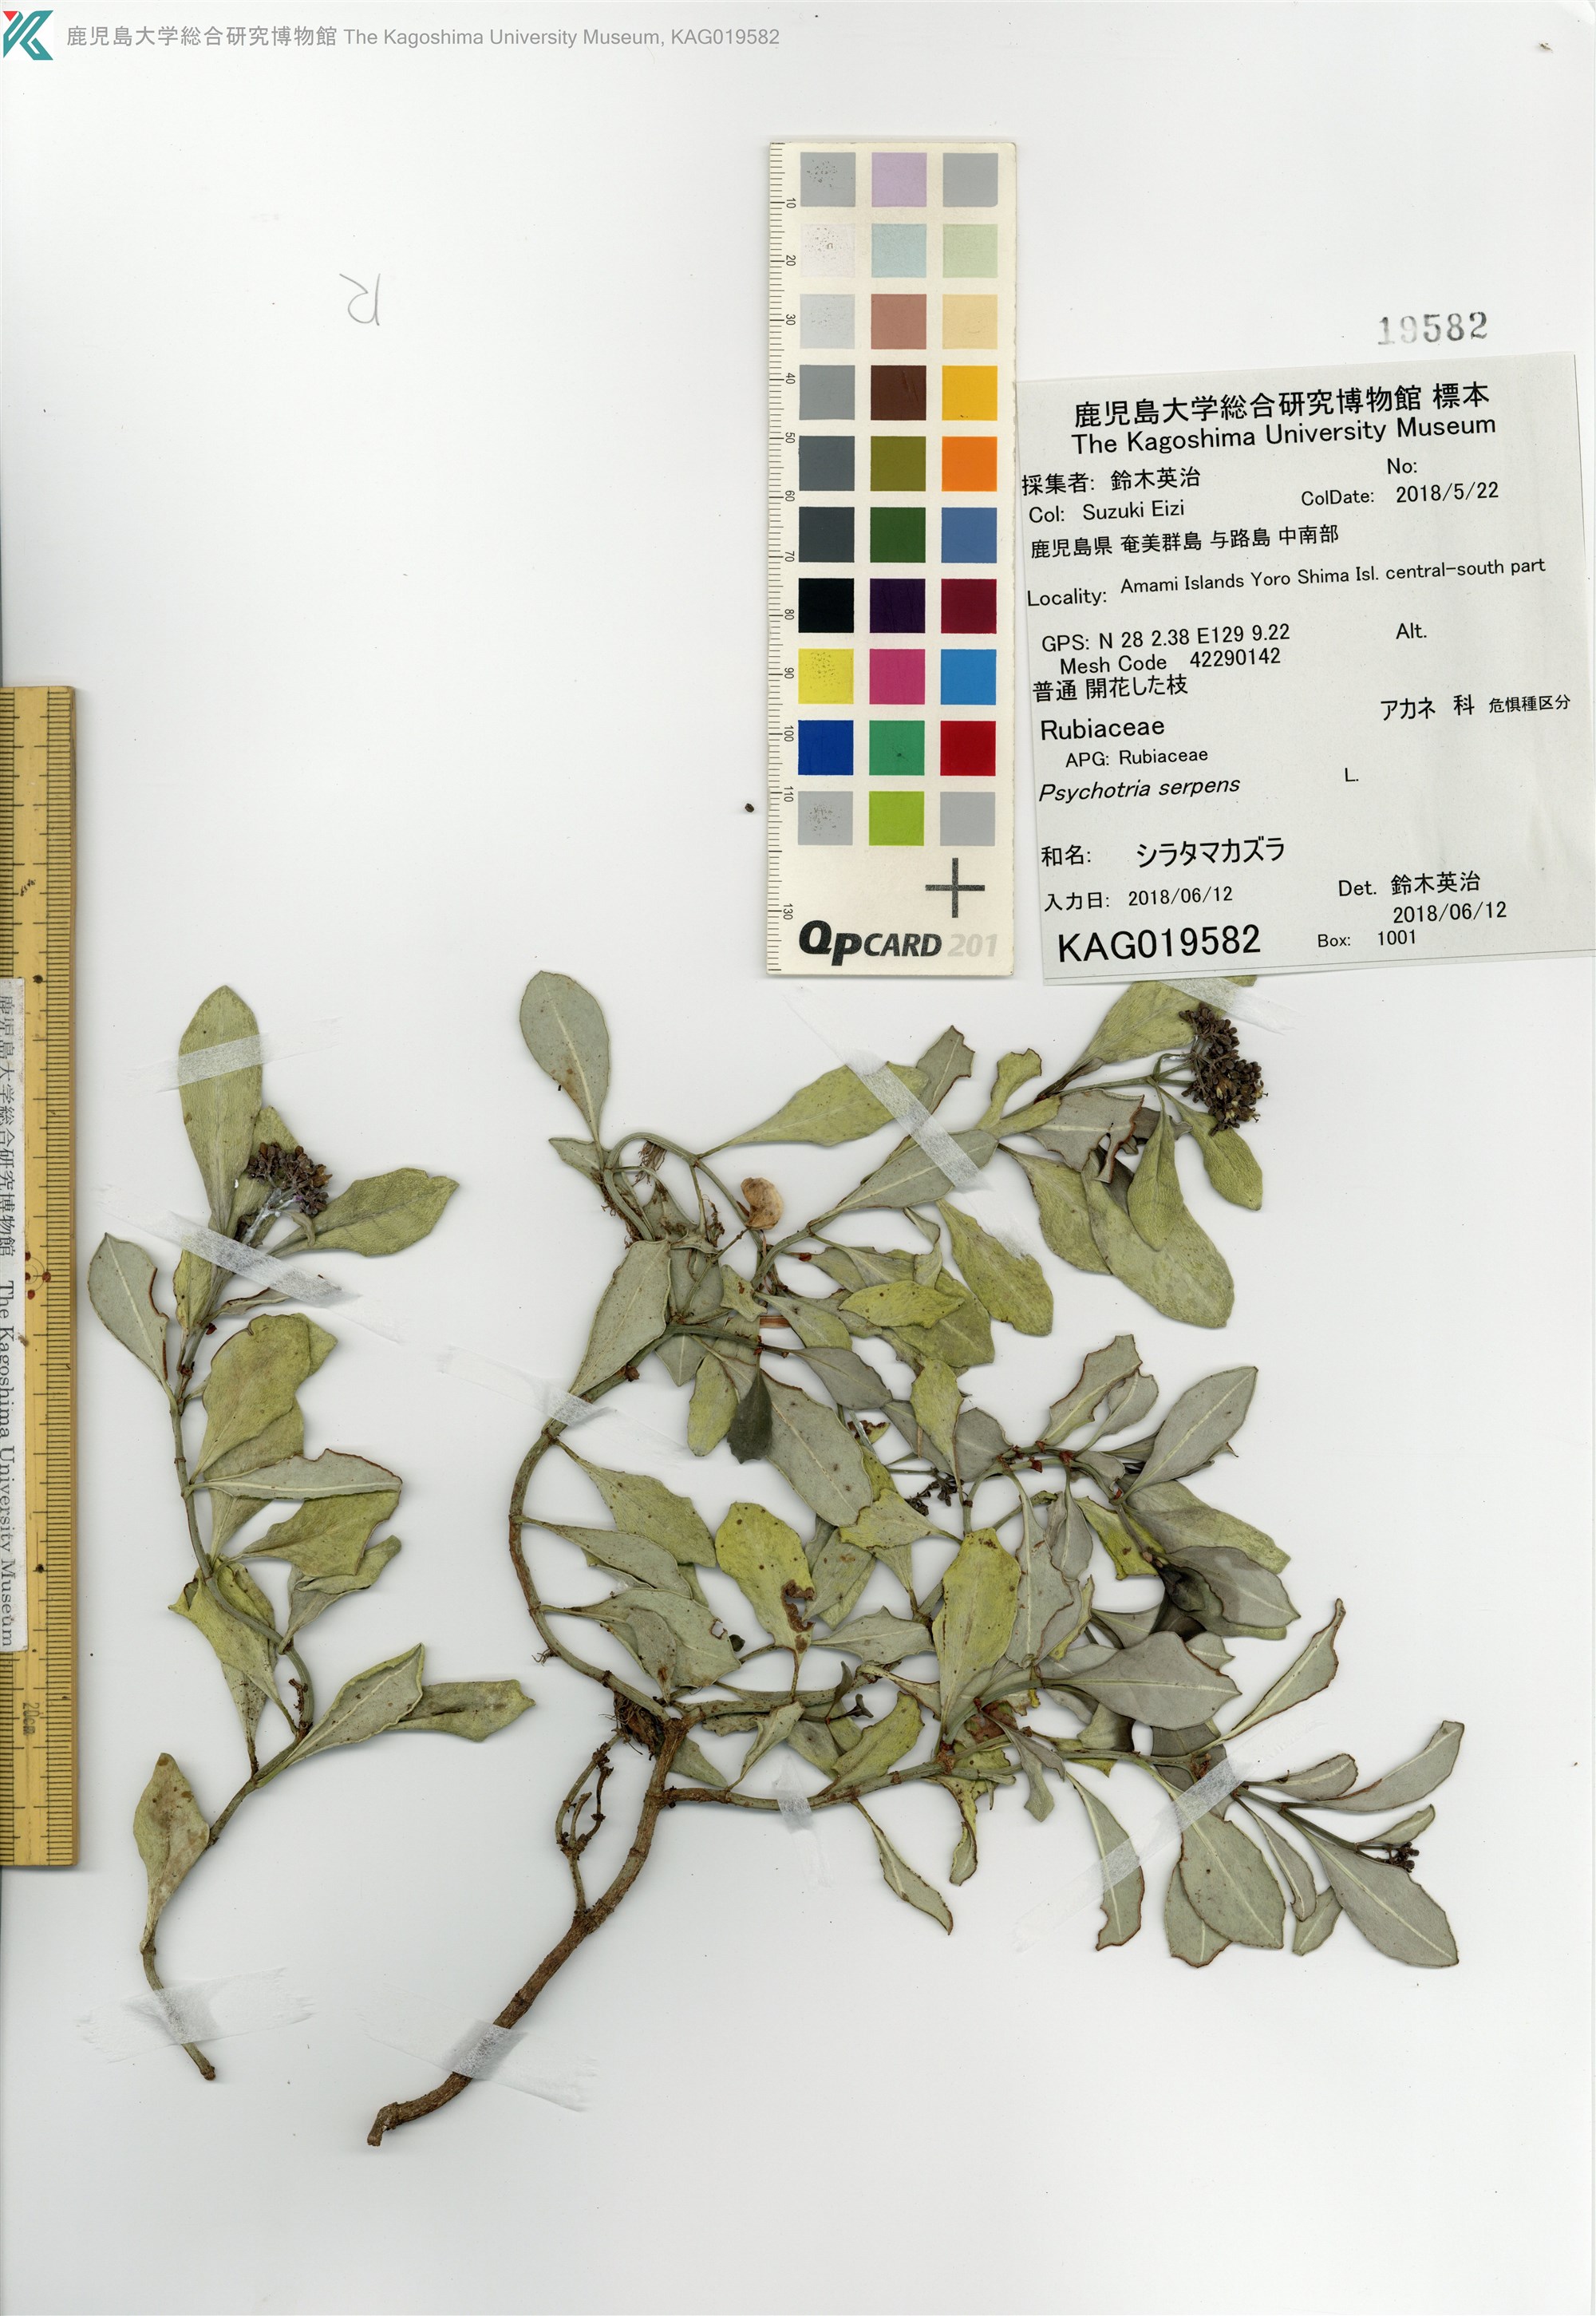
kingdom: Plantae
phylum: Tracheophyta
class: Magnoliopsida
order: Gentianales
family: Rubiaceae
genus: Psychotria
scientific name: Psychotria serpens
